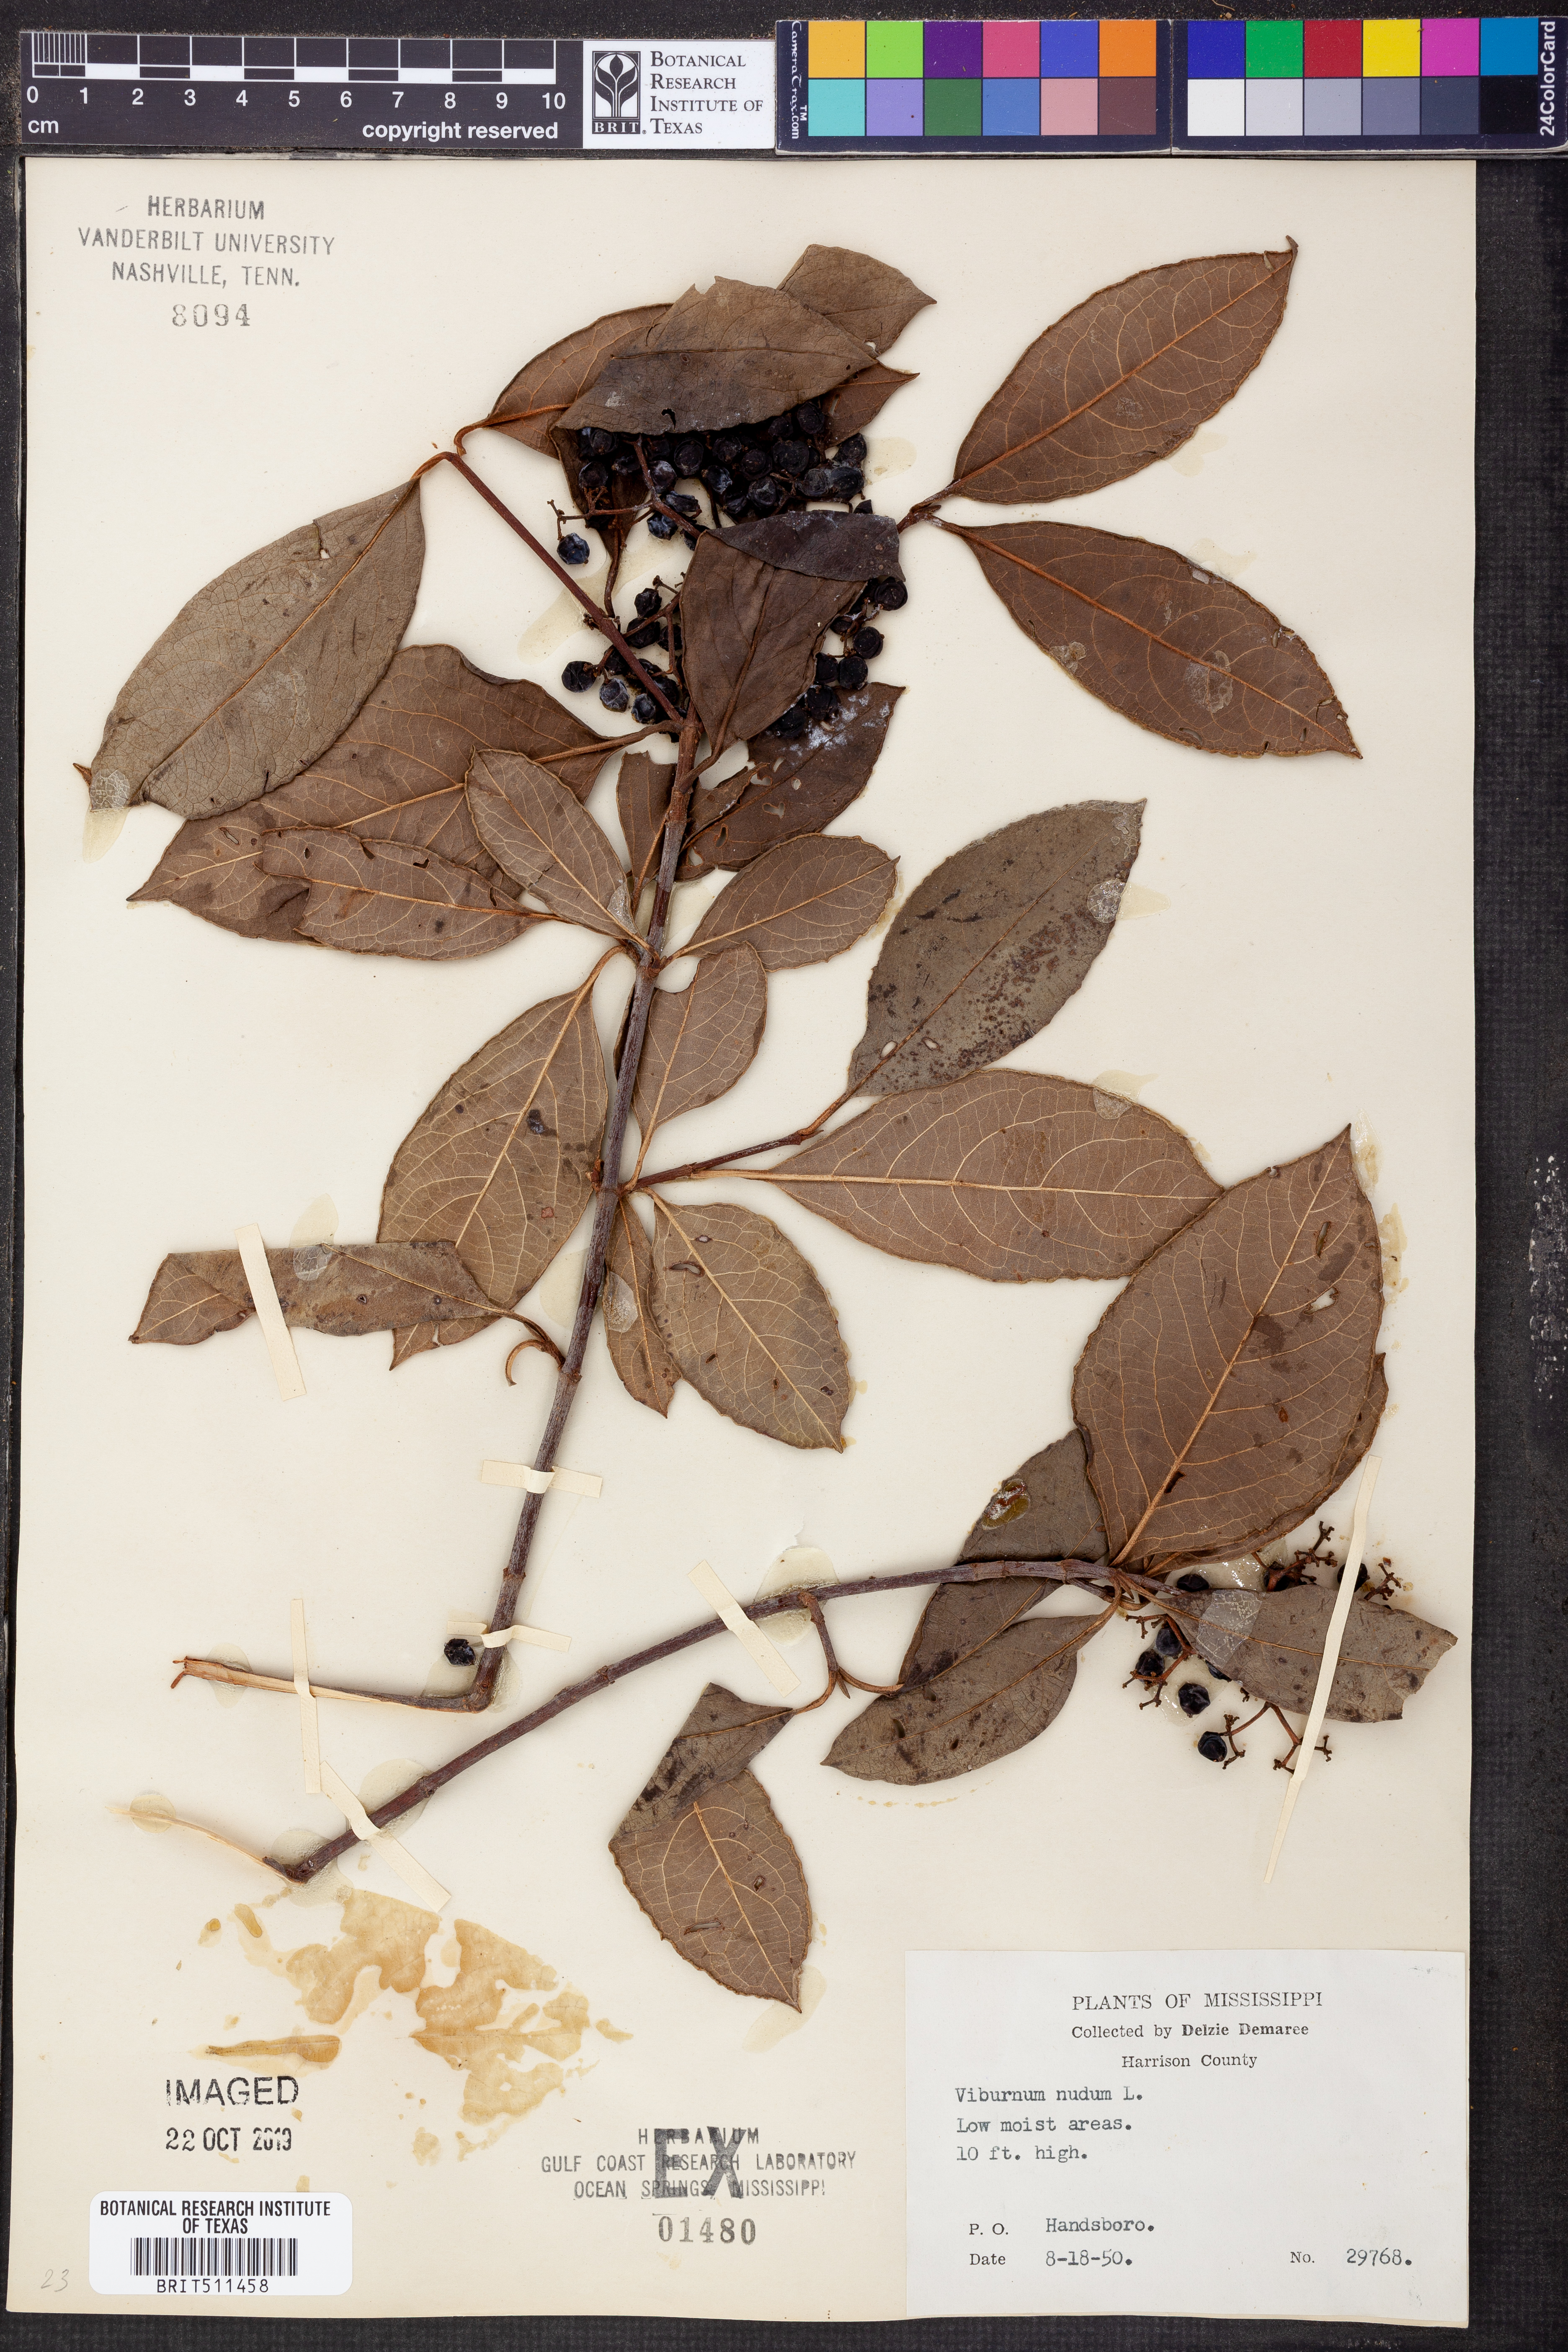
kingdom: Plantae
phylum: Tracheophyta
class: Magnoliopsida
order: Dipsacales
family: Viburnaceae
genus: Viburnum
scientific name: Viburnum nudum
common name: Possum haw
